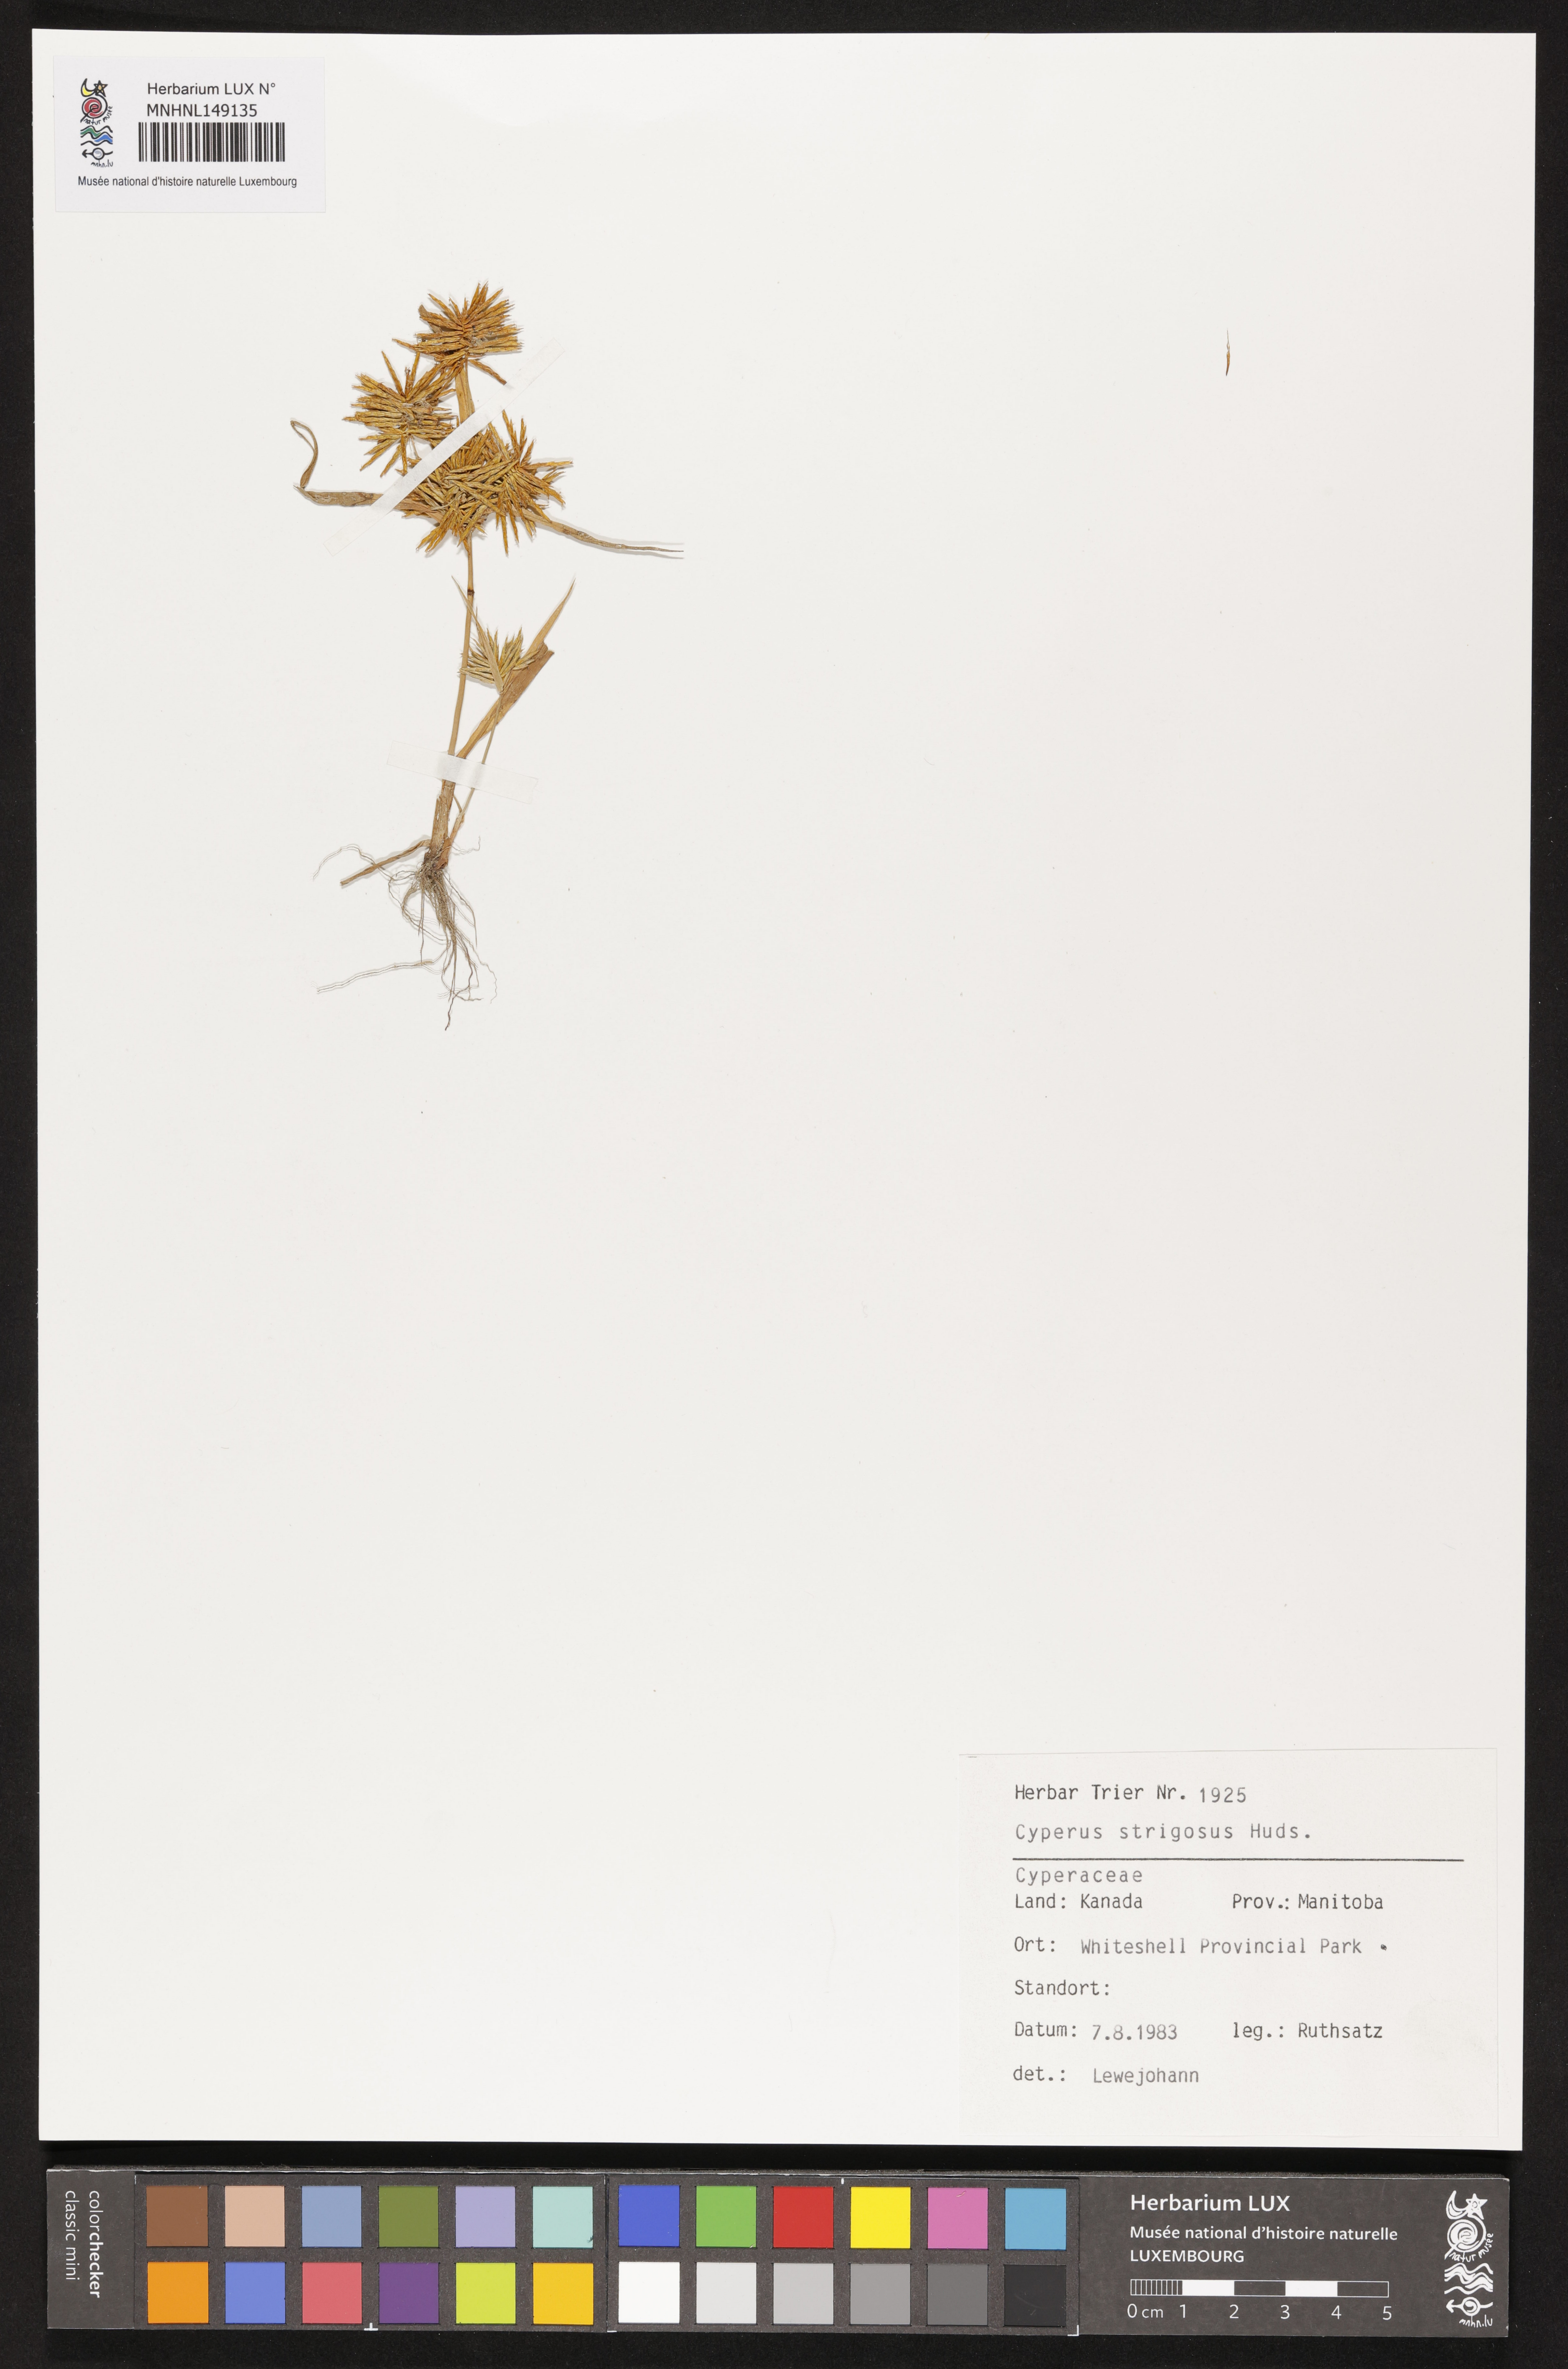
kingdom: Plantae
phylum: Tracheophyta
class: Liliopsida
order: Poales
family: Cyperaceae
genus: Cyperus
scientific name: Cyperus strigosus
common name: False nutsedge
